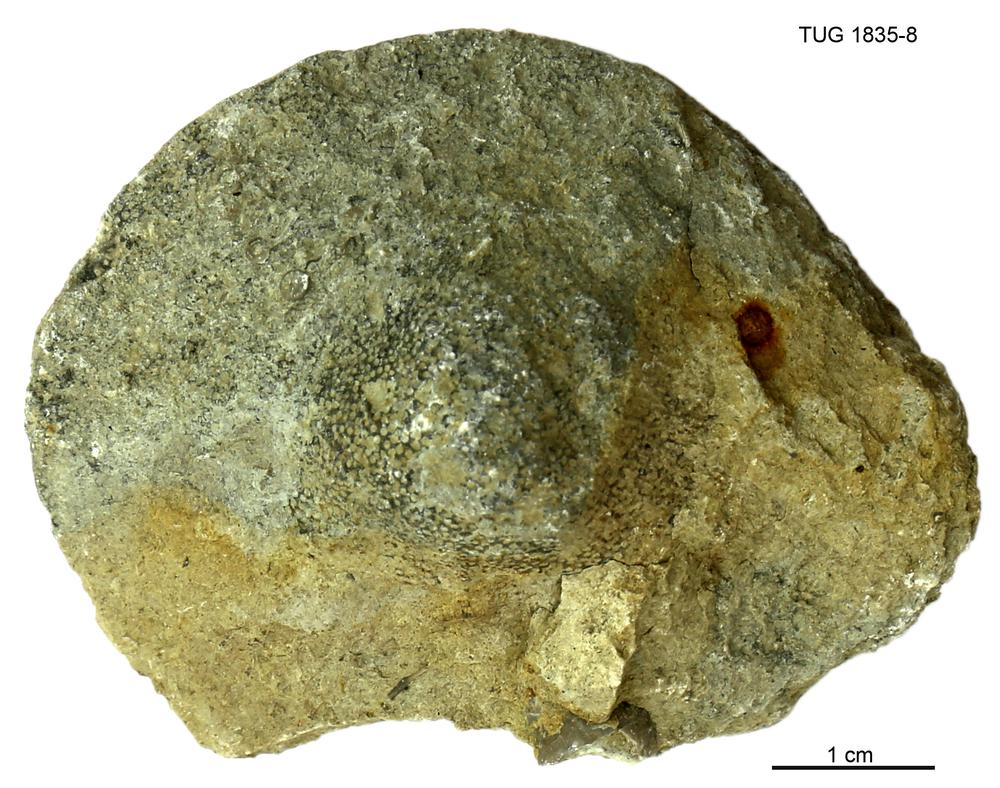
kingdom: Animalia
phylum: Bryozoa
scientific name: Bryozoa
